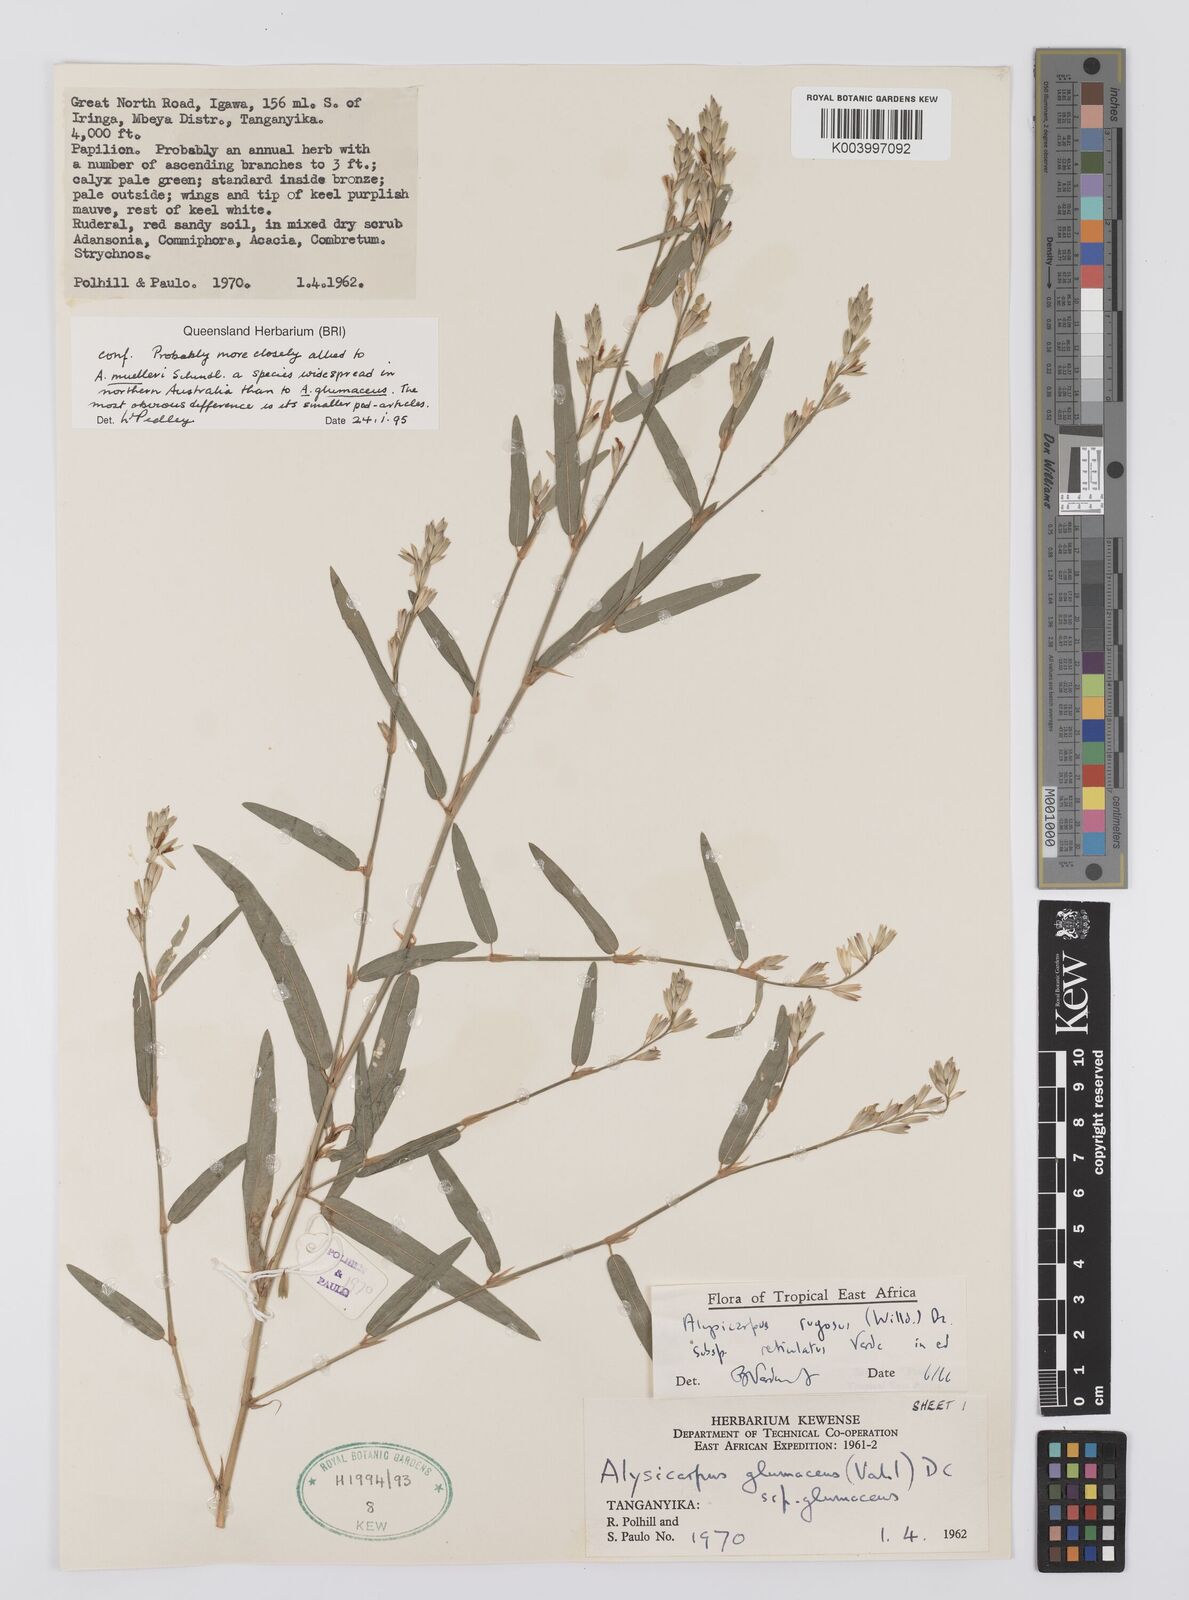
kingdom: Plantae
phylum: Tracheophyta
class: Magnoliopsida
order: Fabales
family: Fabaceae
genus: Alysicarpus
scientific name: Alysicarpus rugosus
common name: Red moneywort
